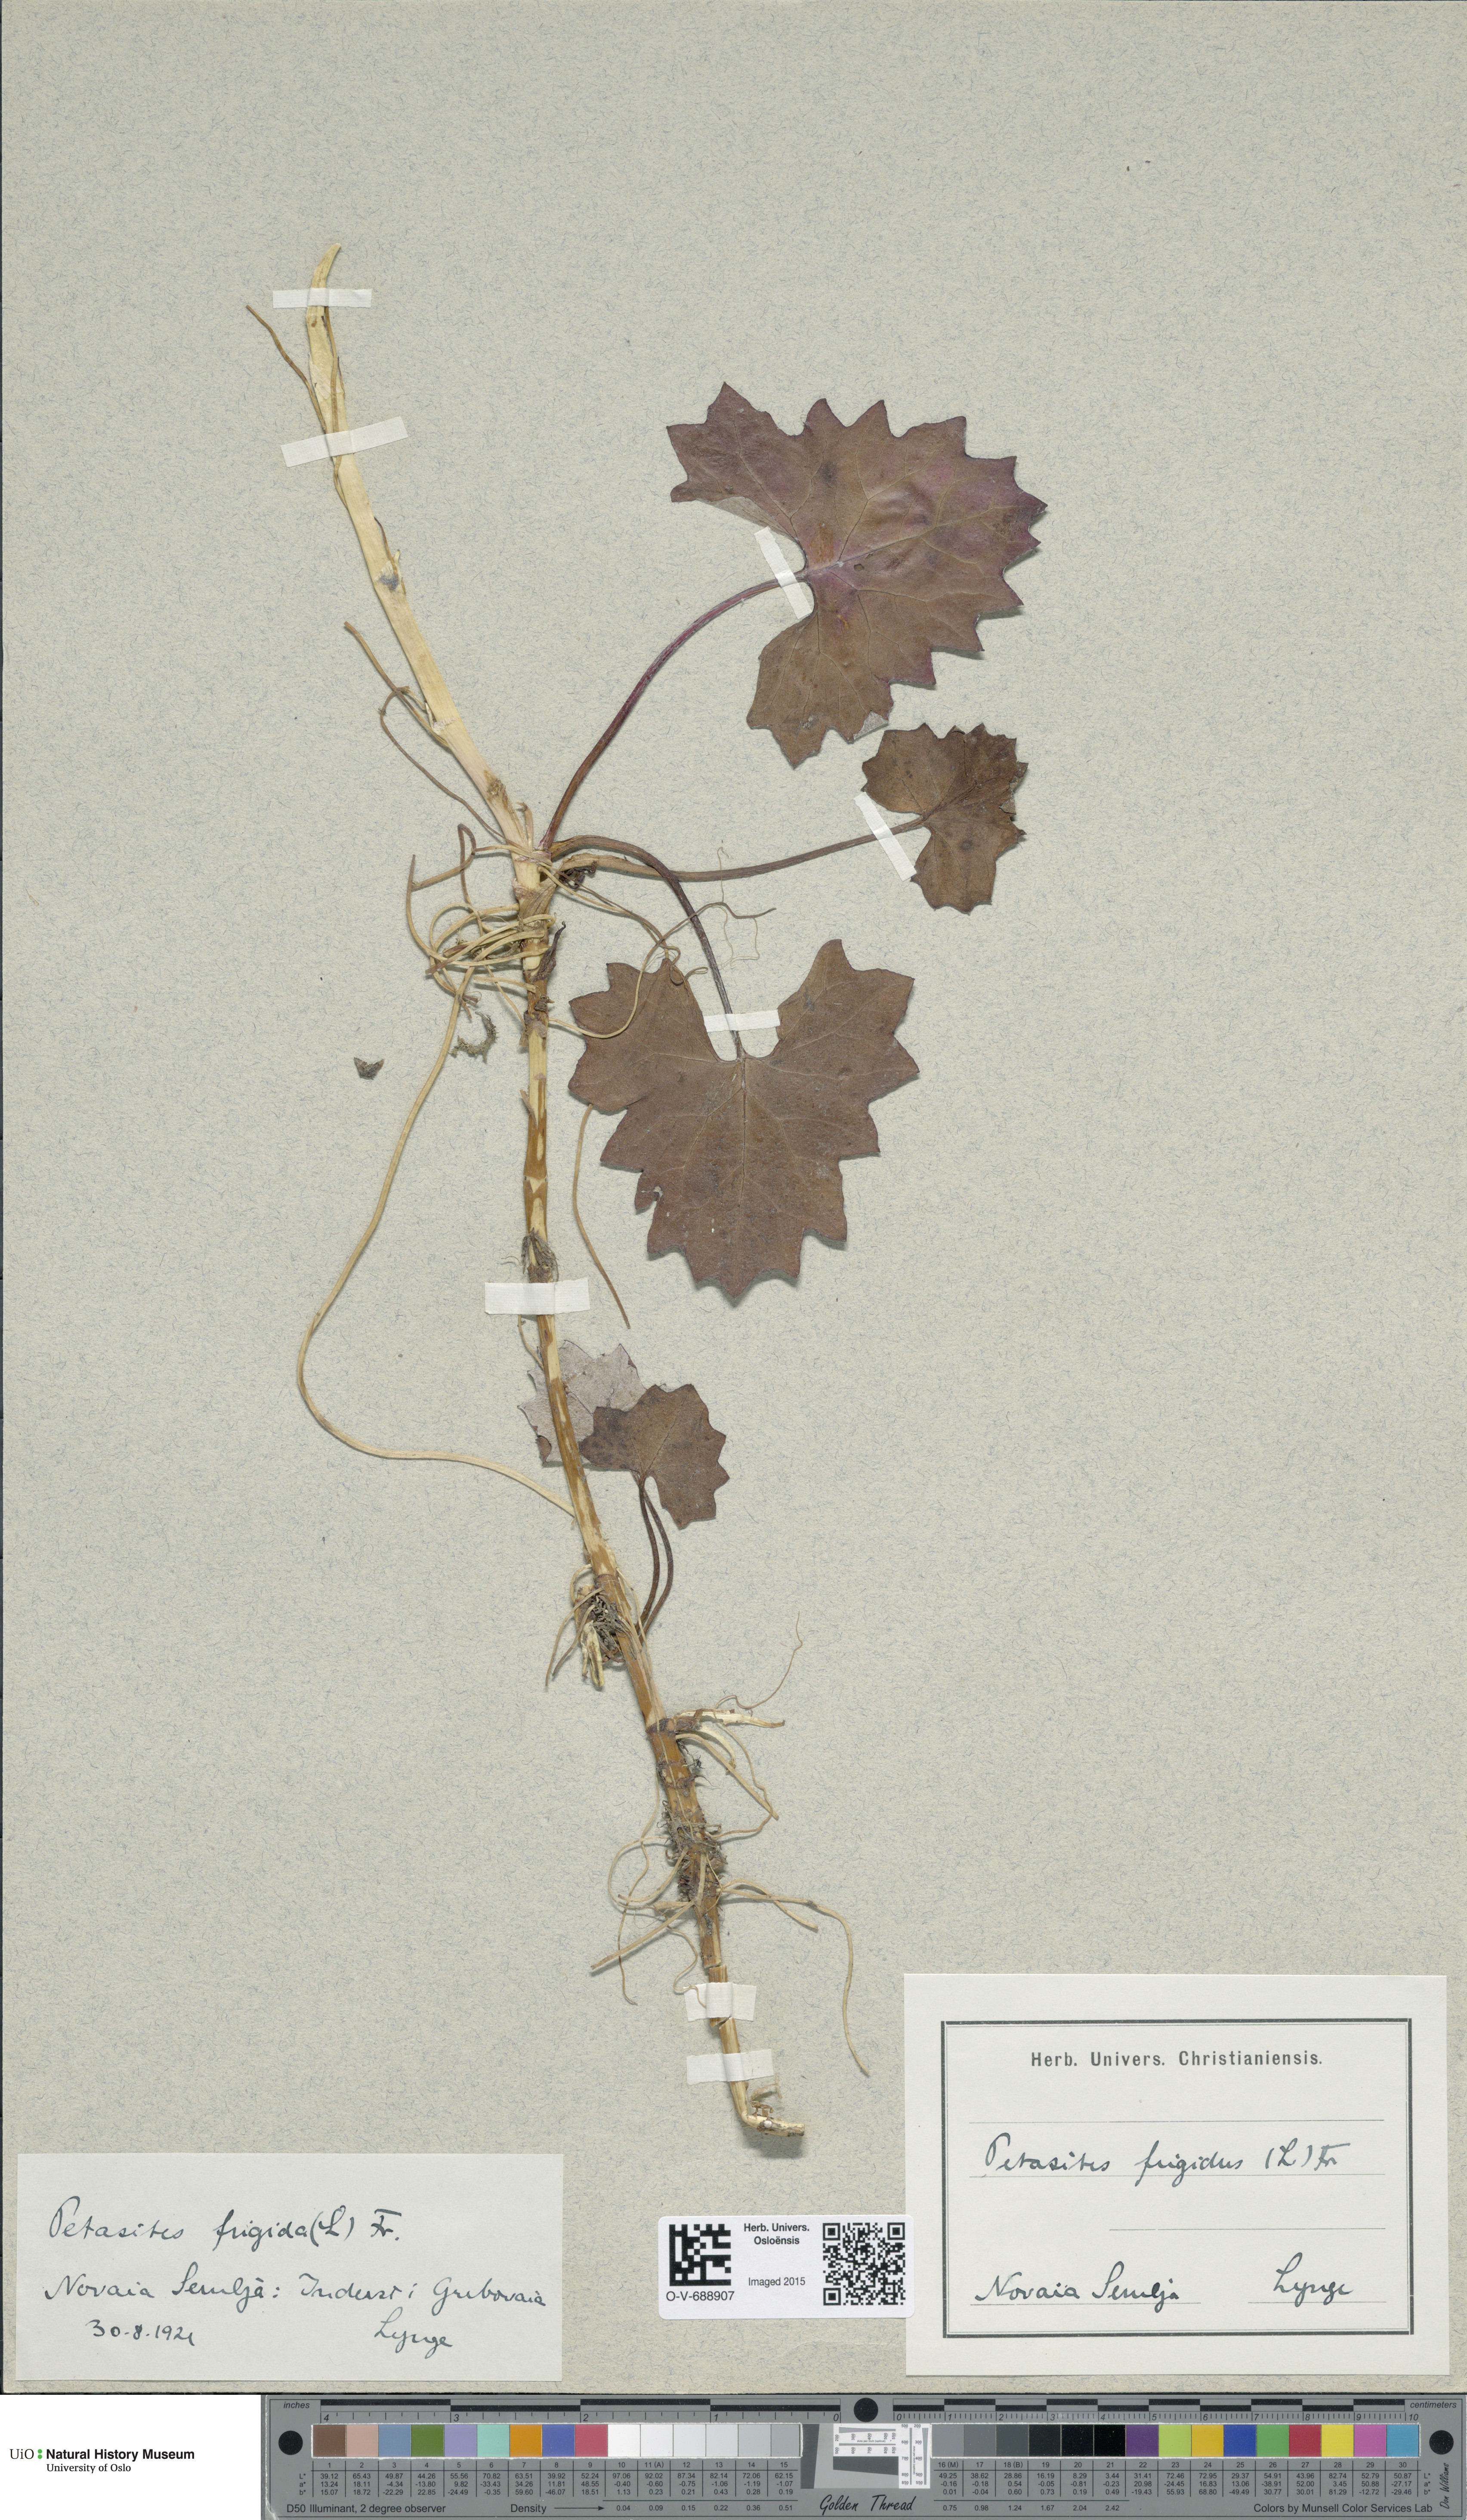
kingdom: Plantae
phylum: Tracheophyta
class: Magnoliopsida
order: Asterales
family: Asteraceae
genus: Petasites
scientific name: Petasites frigidus
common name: Arctic butterbur
